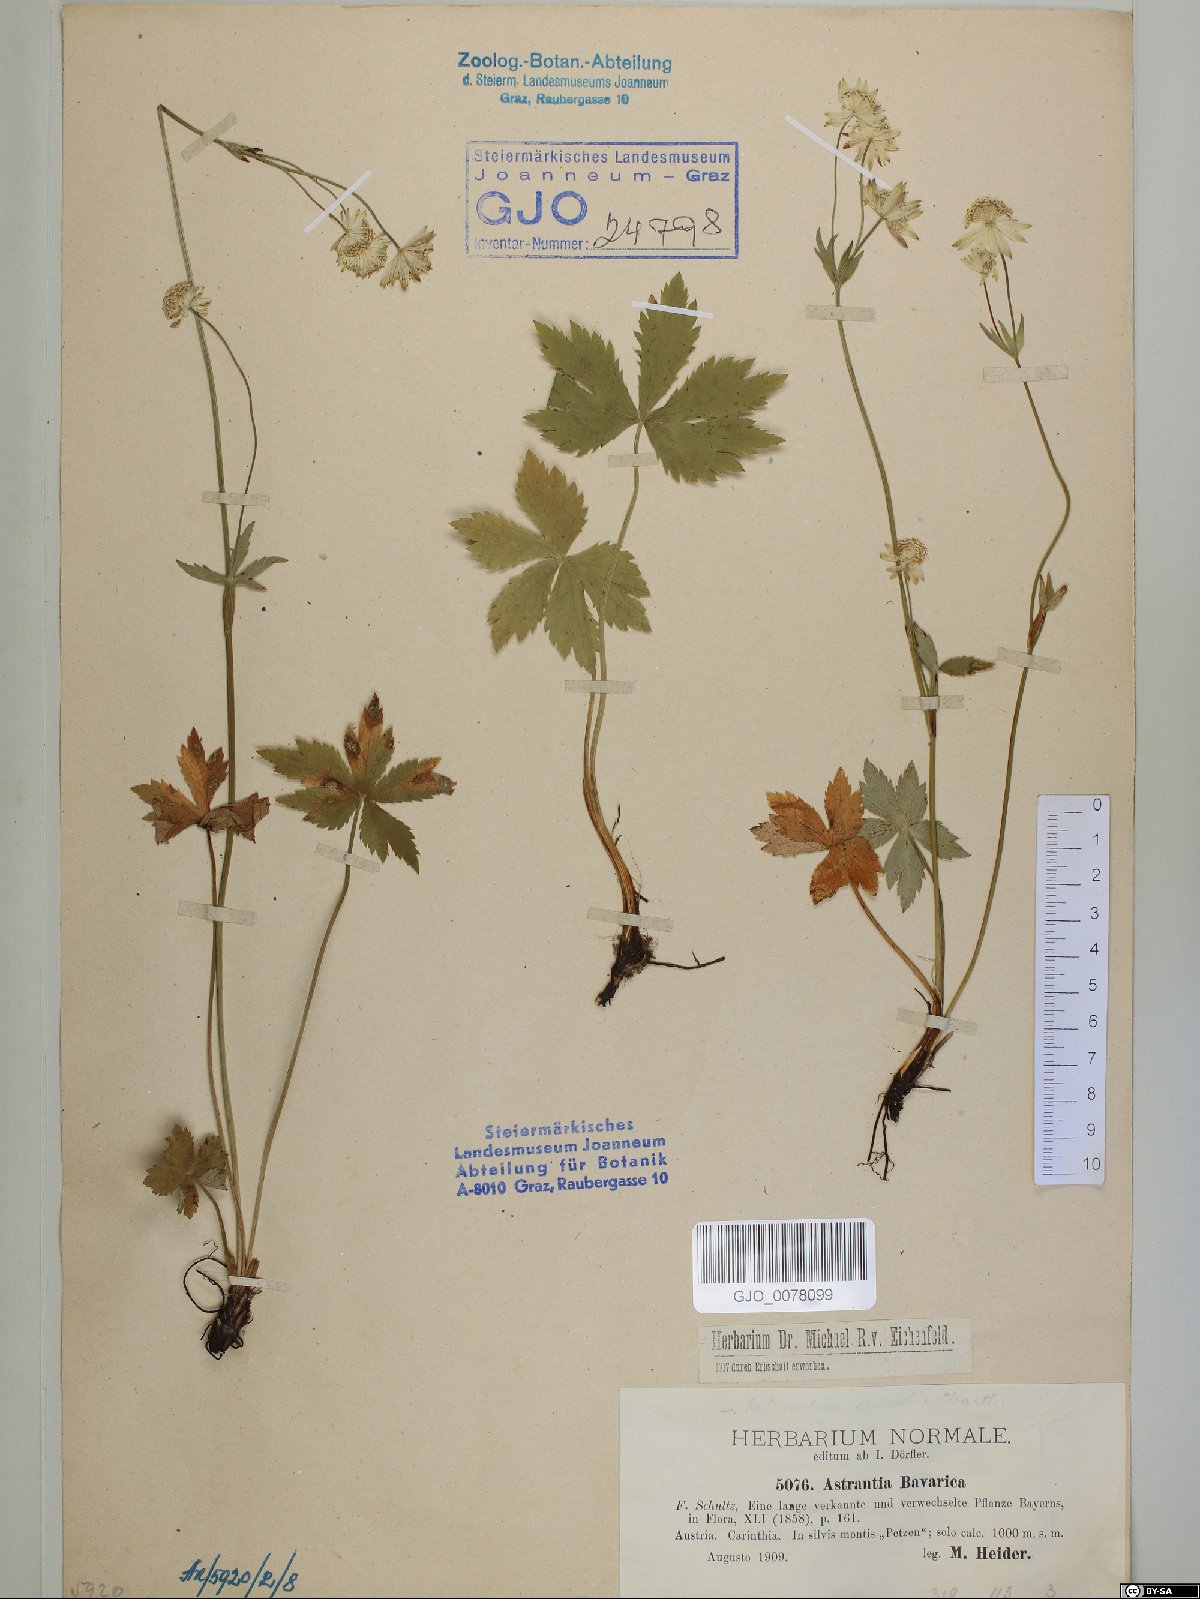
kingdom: Plantae
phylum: Tracheophyta
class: Magnoliopsida
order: Apiales
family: Apiaceae
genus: Astrantia
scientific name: Astrantia bavarica
